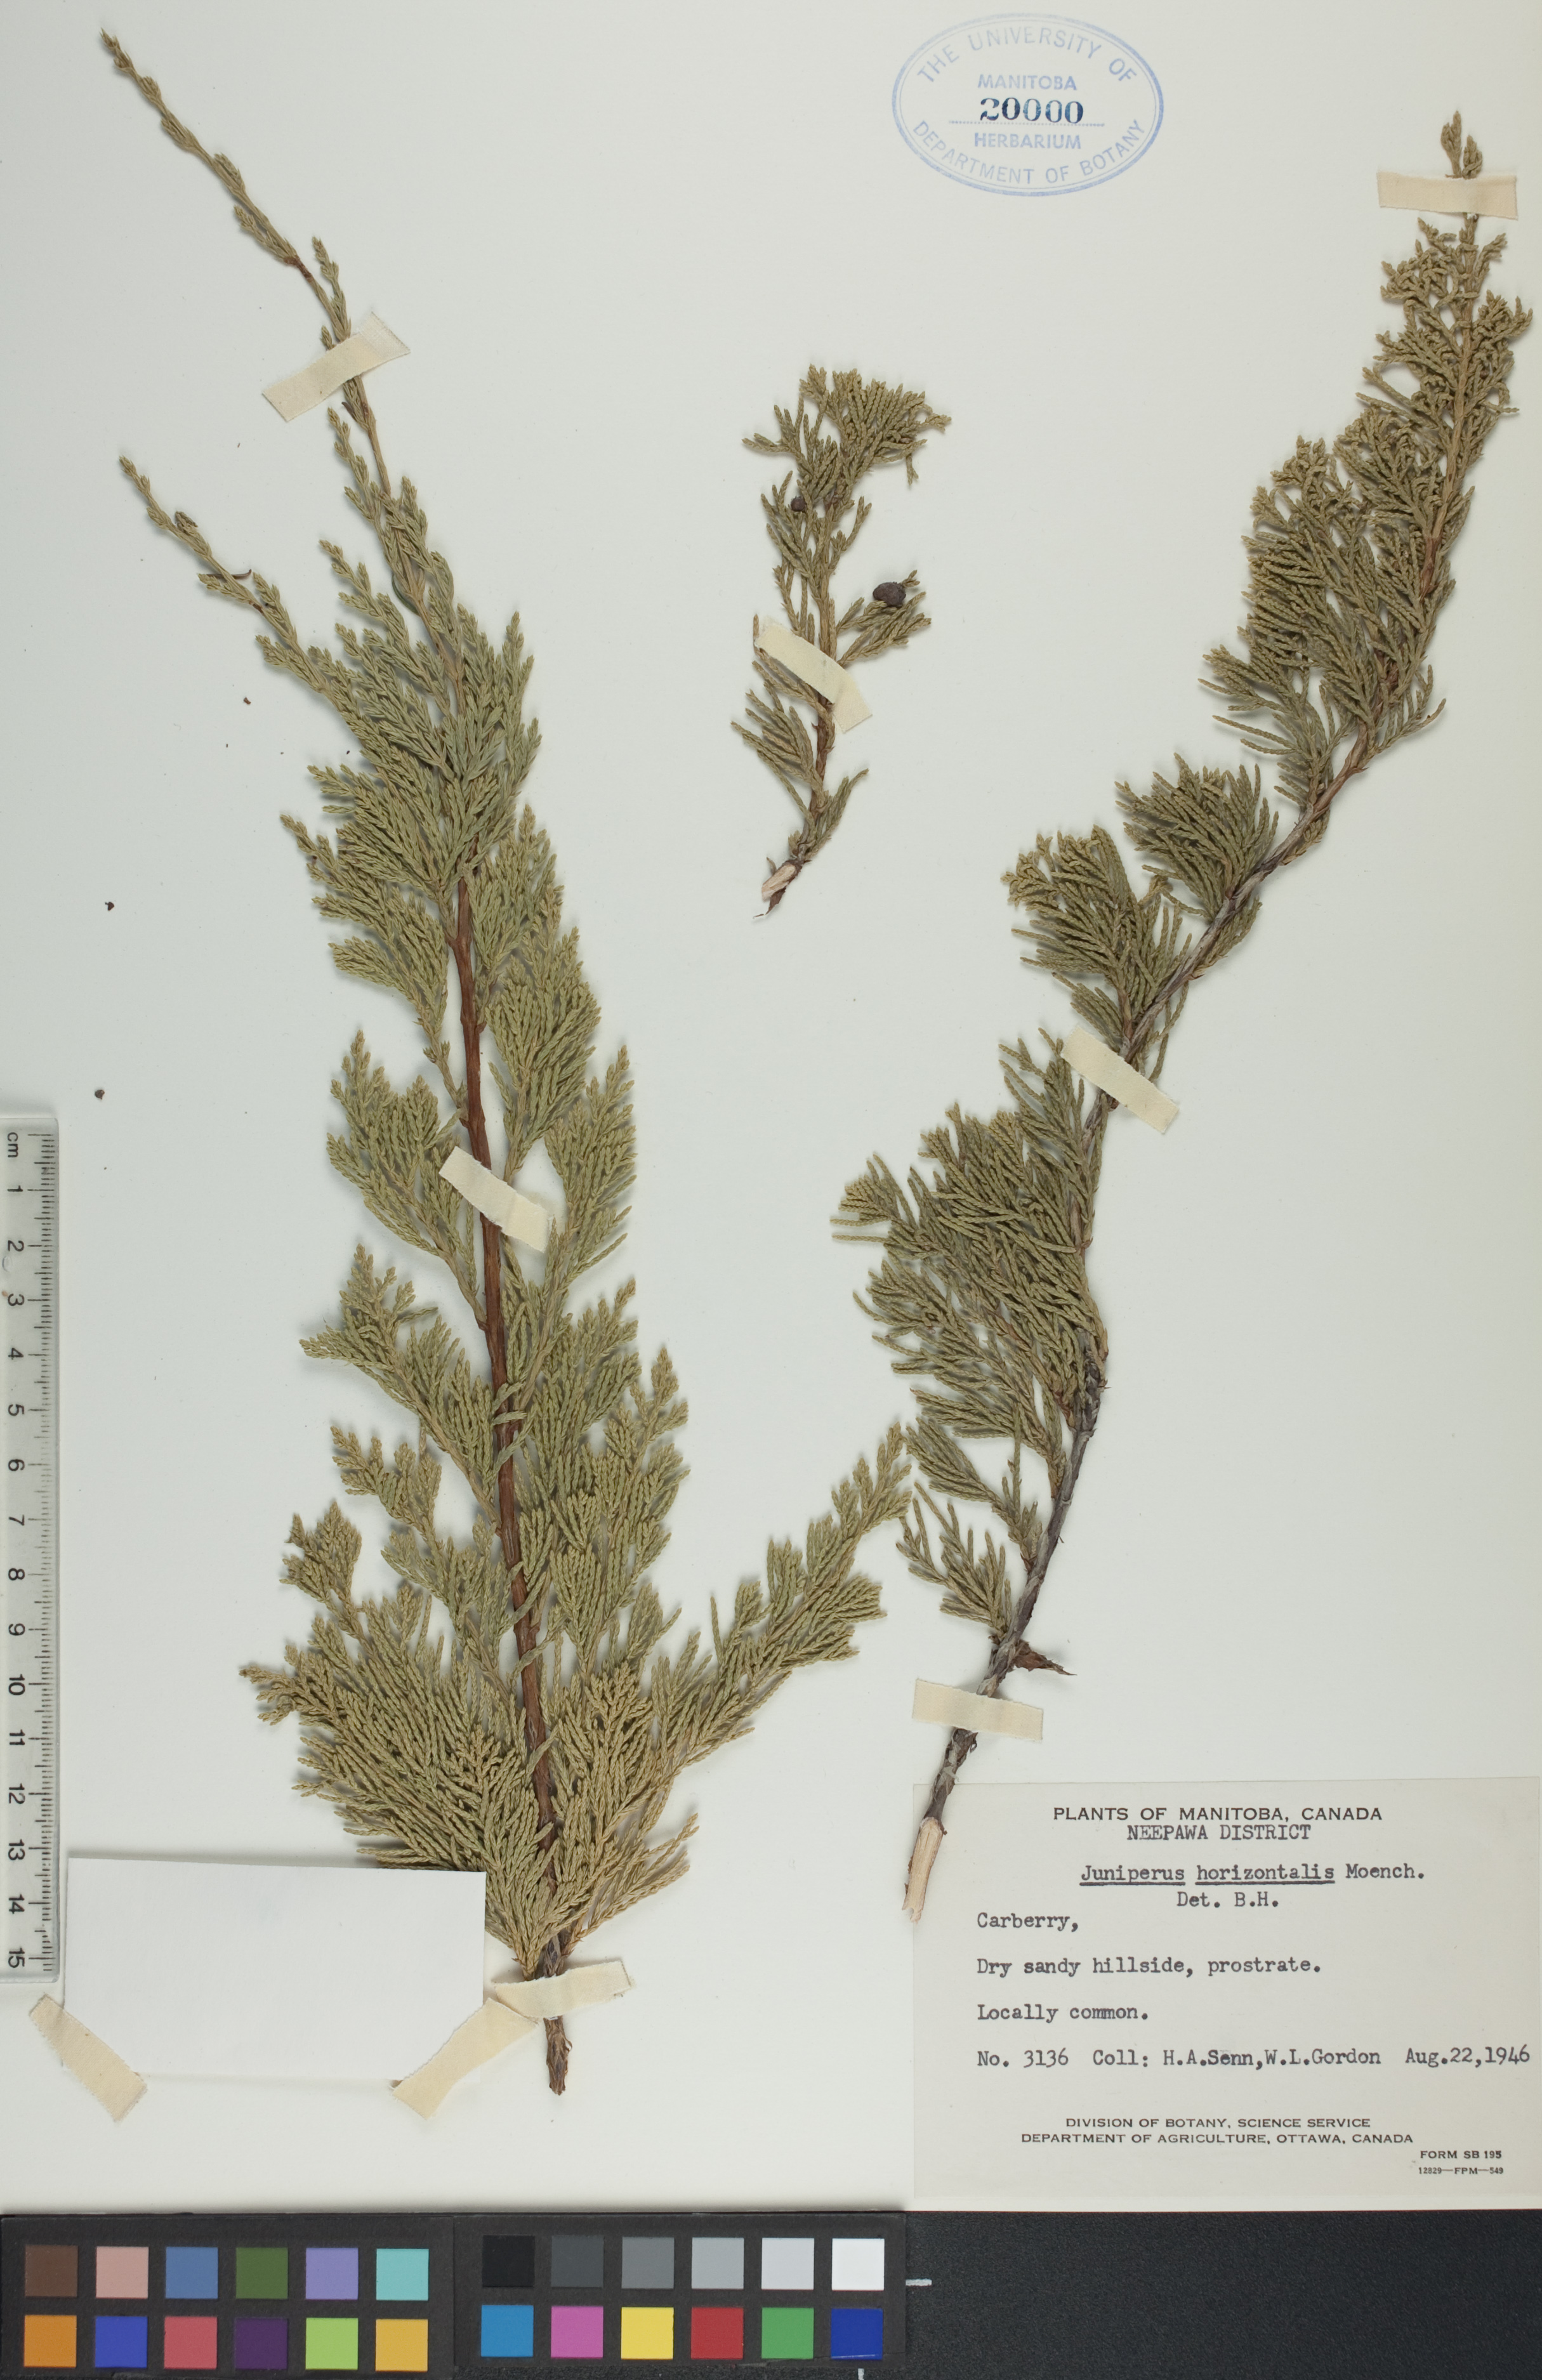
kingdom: Plantae
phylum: Tracheophyta
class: Pinopsida
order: Pinales
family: Cupressaceae
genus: Juniperus
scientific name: Juniperus horizontalis
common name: Creeping juniper
